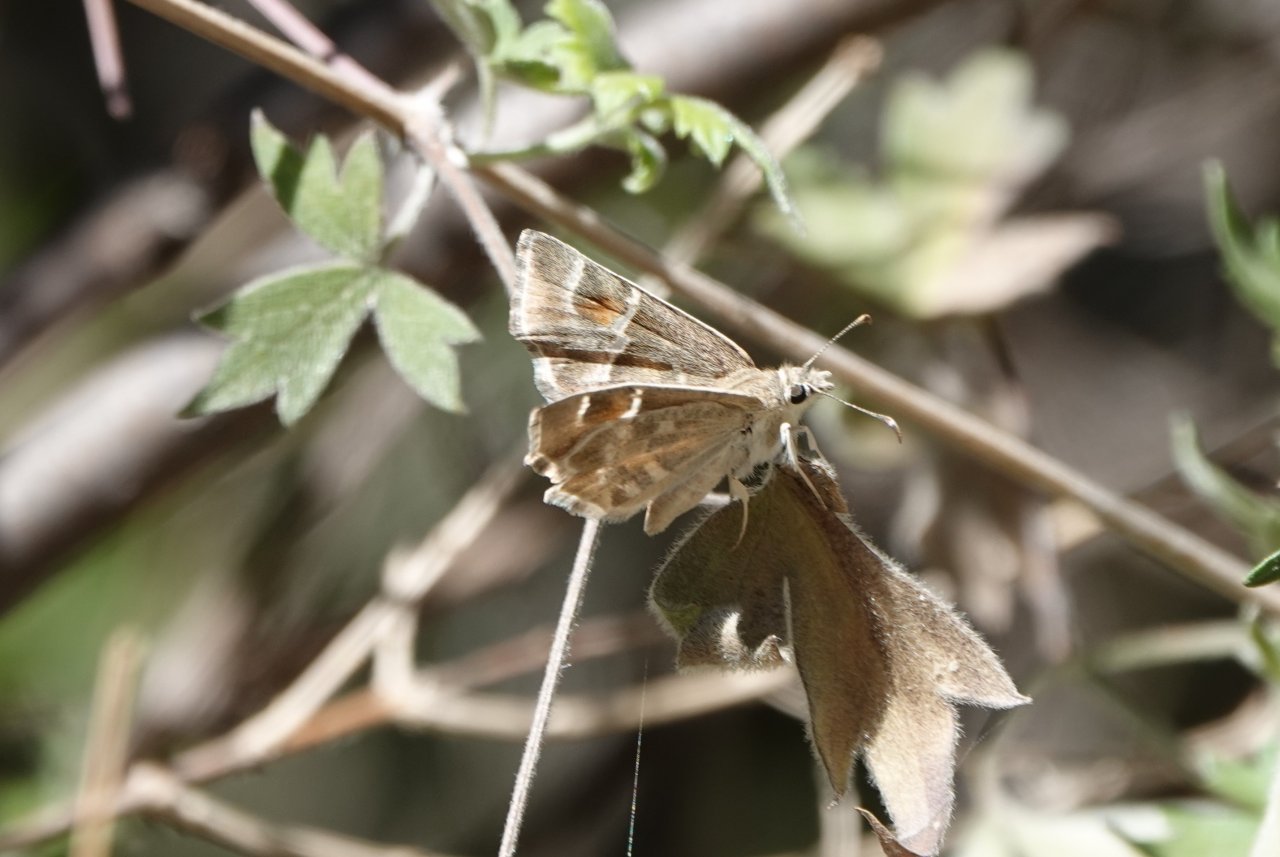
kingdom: Animalia
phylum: Arthropoda
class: Insecta
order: Lepidoptera
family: Hesperiidae
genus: Systasea
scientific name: Systasea zampa
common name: Arizona Powdered-Skipper
